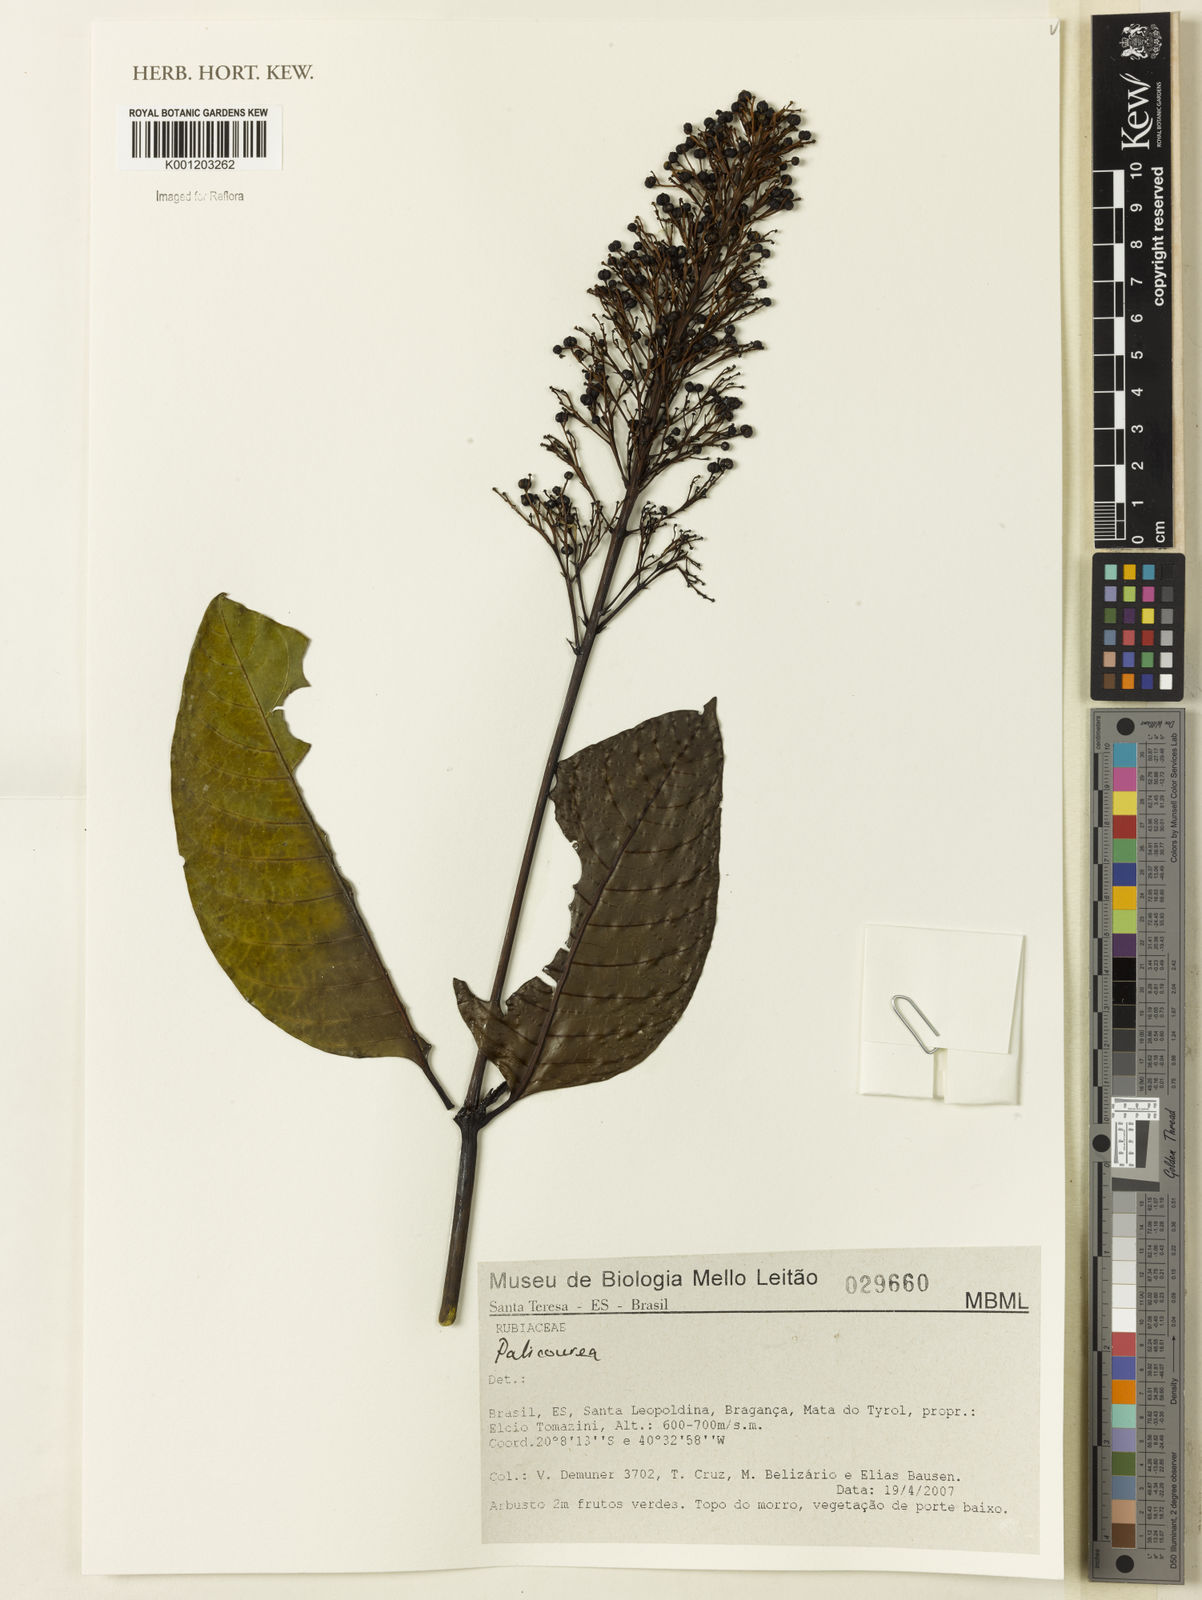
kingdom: Plantae
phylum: Tracheophyta
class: Magnoliopsida
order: Gentianales
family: Rubiaceae
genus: Palicourea
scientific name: Palicourea
